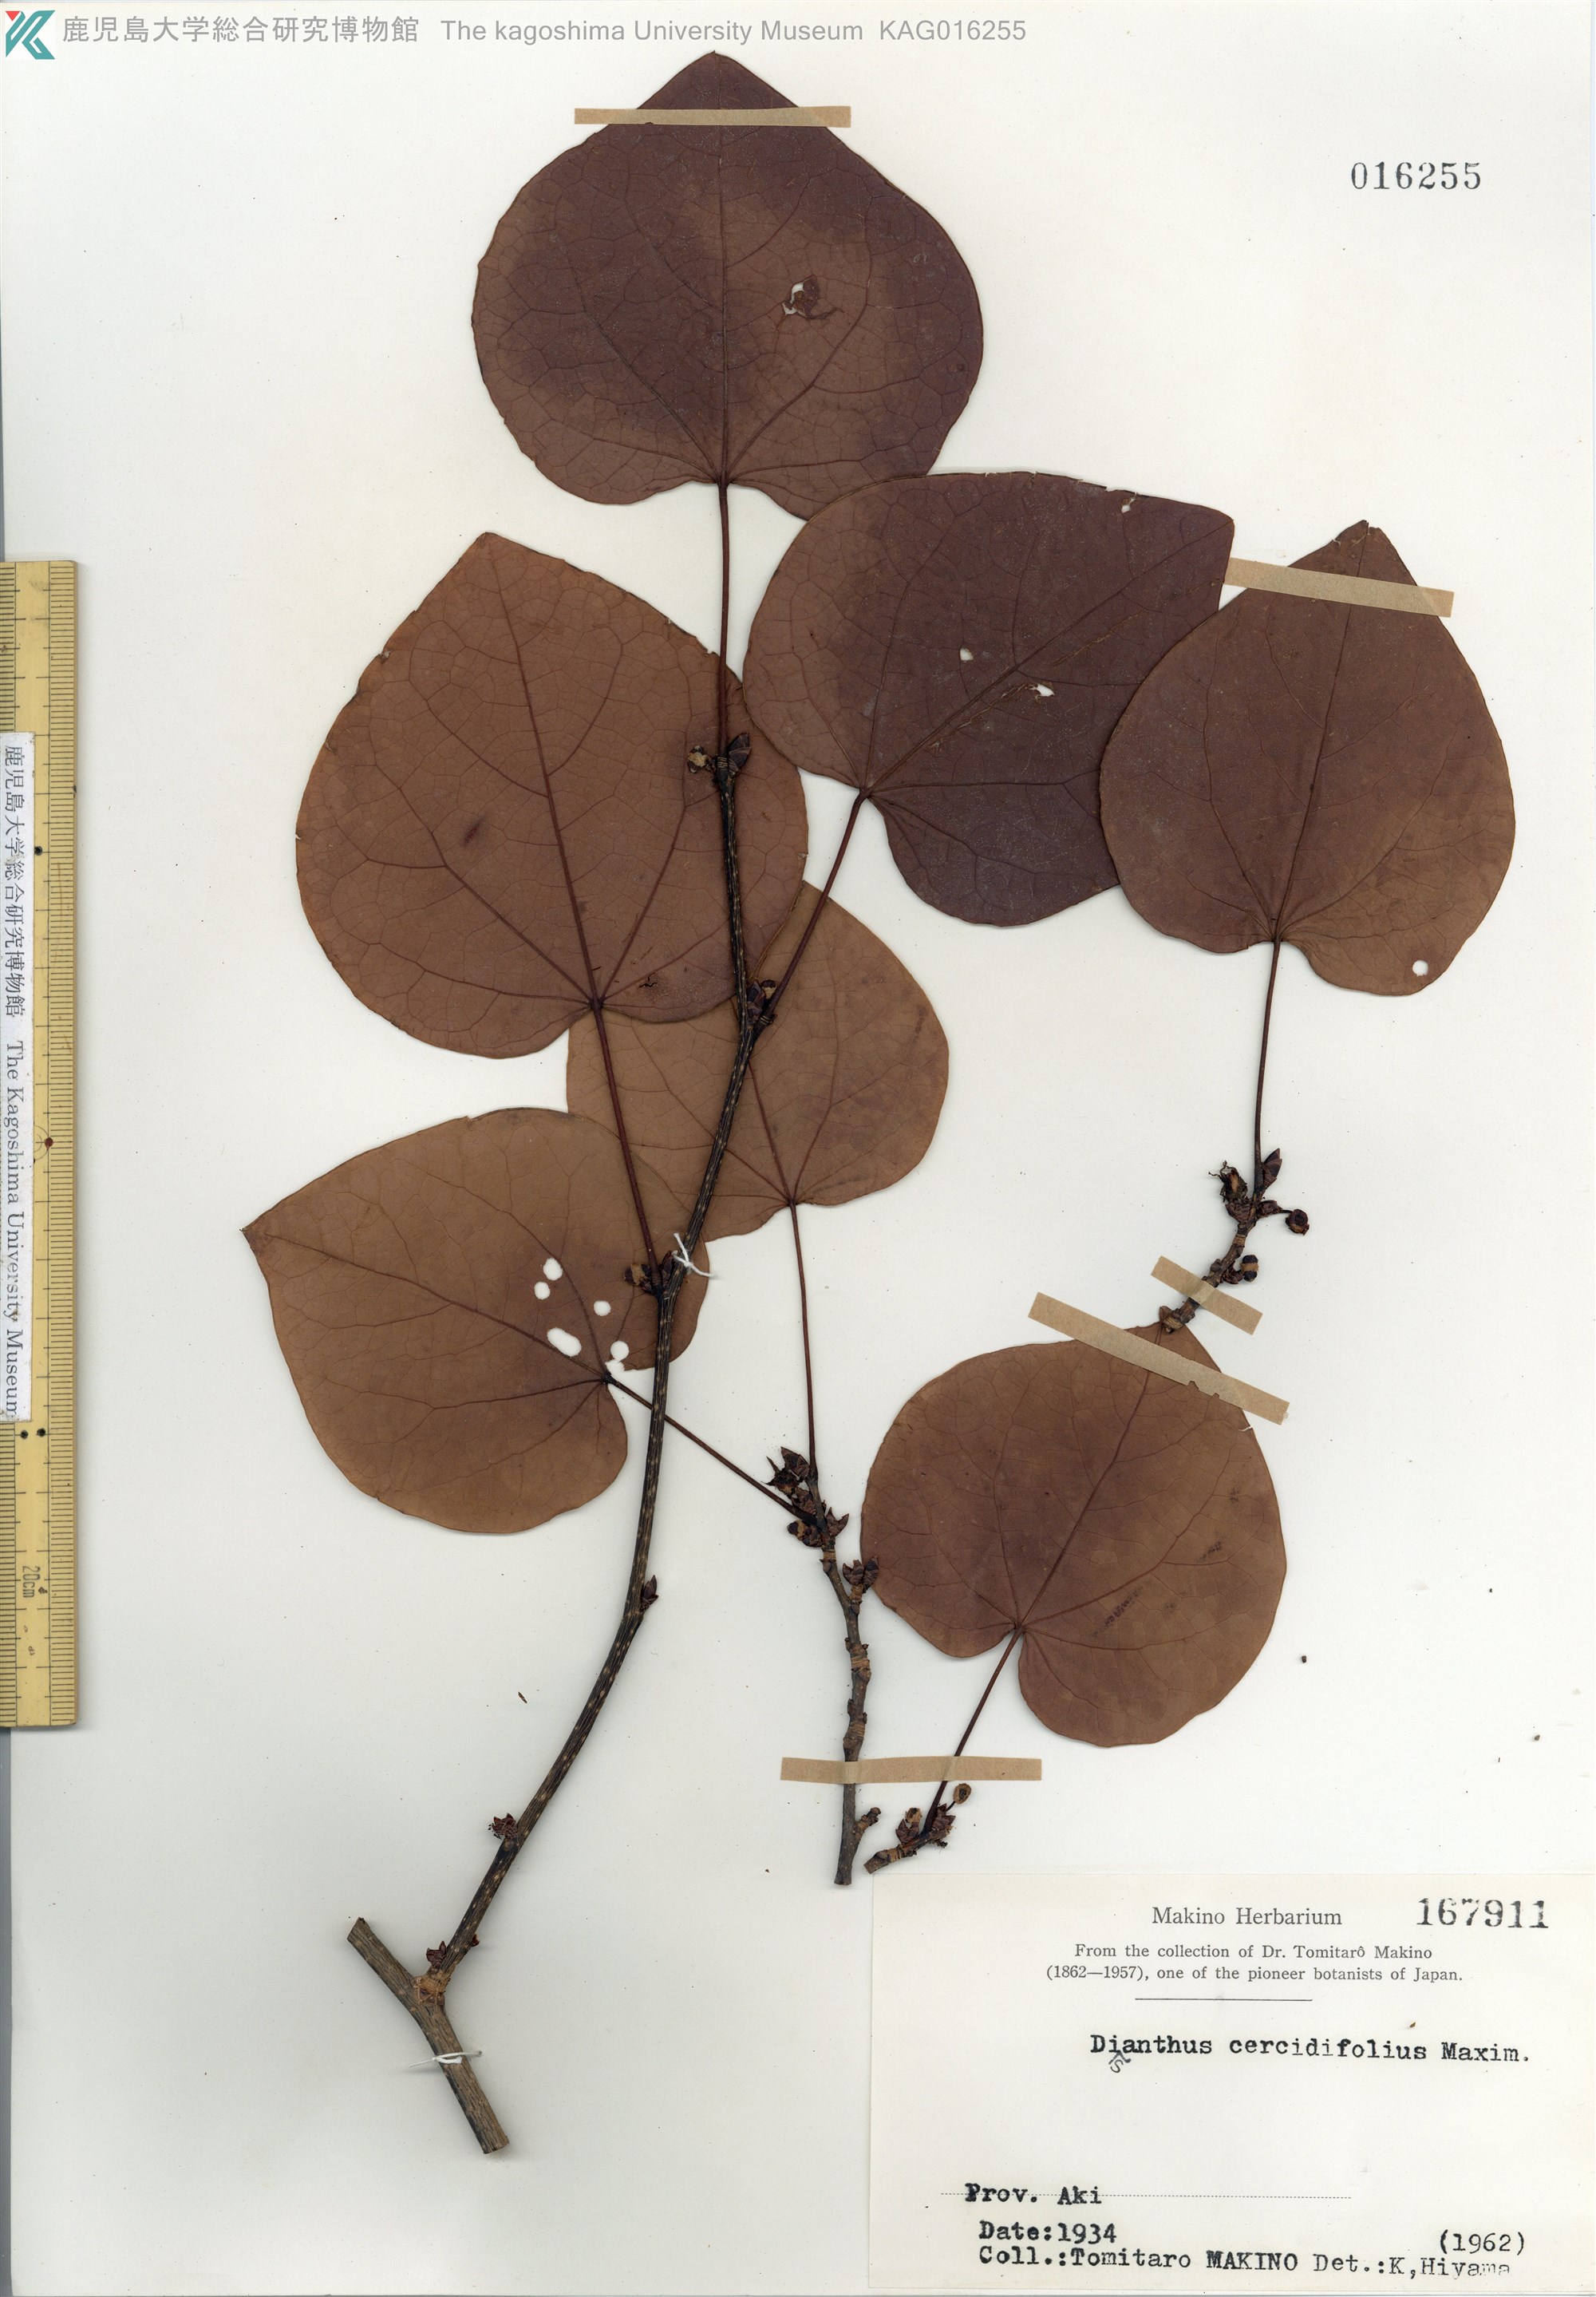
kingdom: Plantae
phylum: Tracheophyta
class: Magnoliopsida
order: Saxifragales
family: Hamamelidaceae
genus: Disanthus
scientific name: Disanthus cercidifolius
